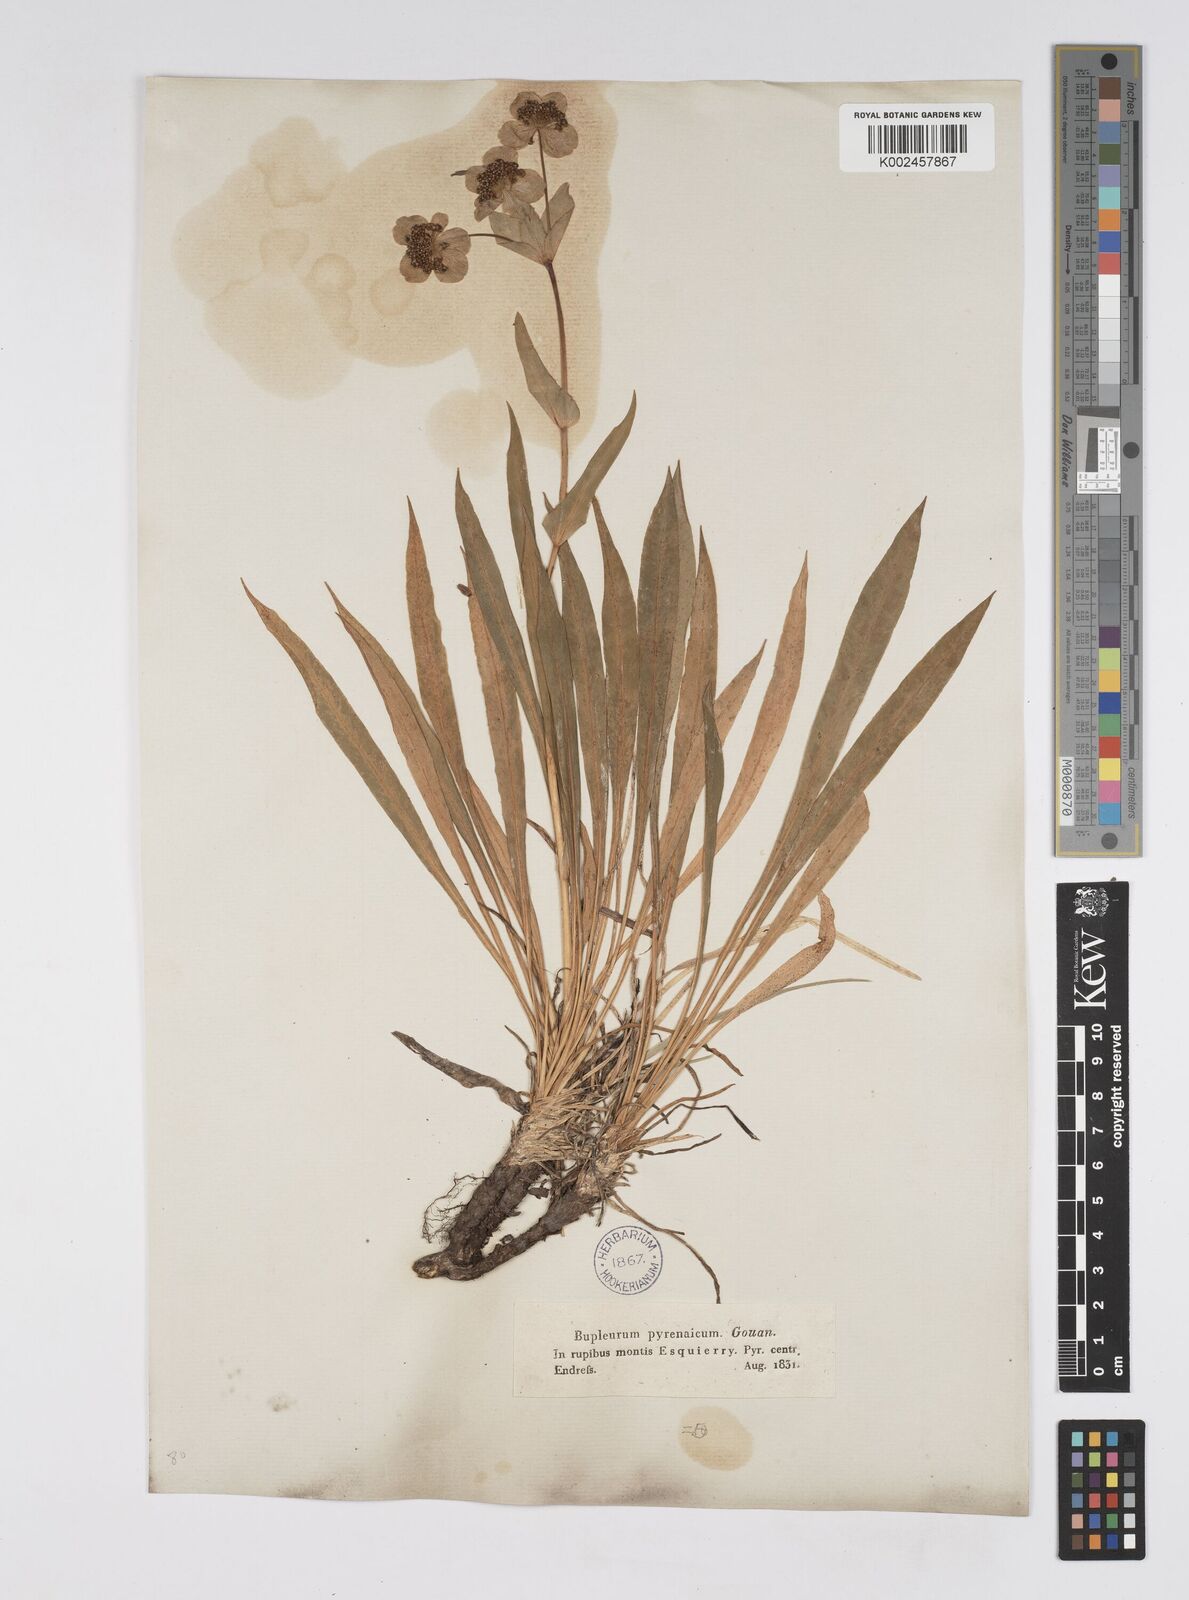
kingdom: Plantae
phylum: Tracheophyta
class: Magnoliopsida
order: Apiales
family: Apiaceae
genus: Bupleurum
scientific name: Bupleurum angulosum
